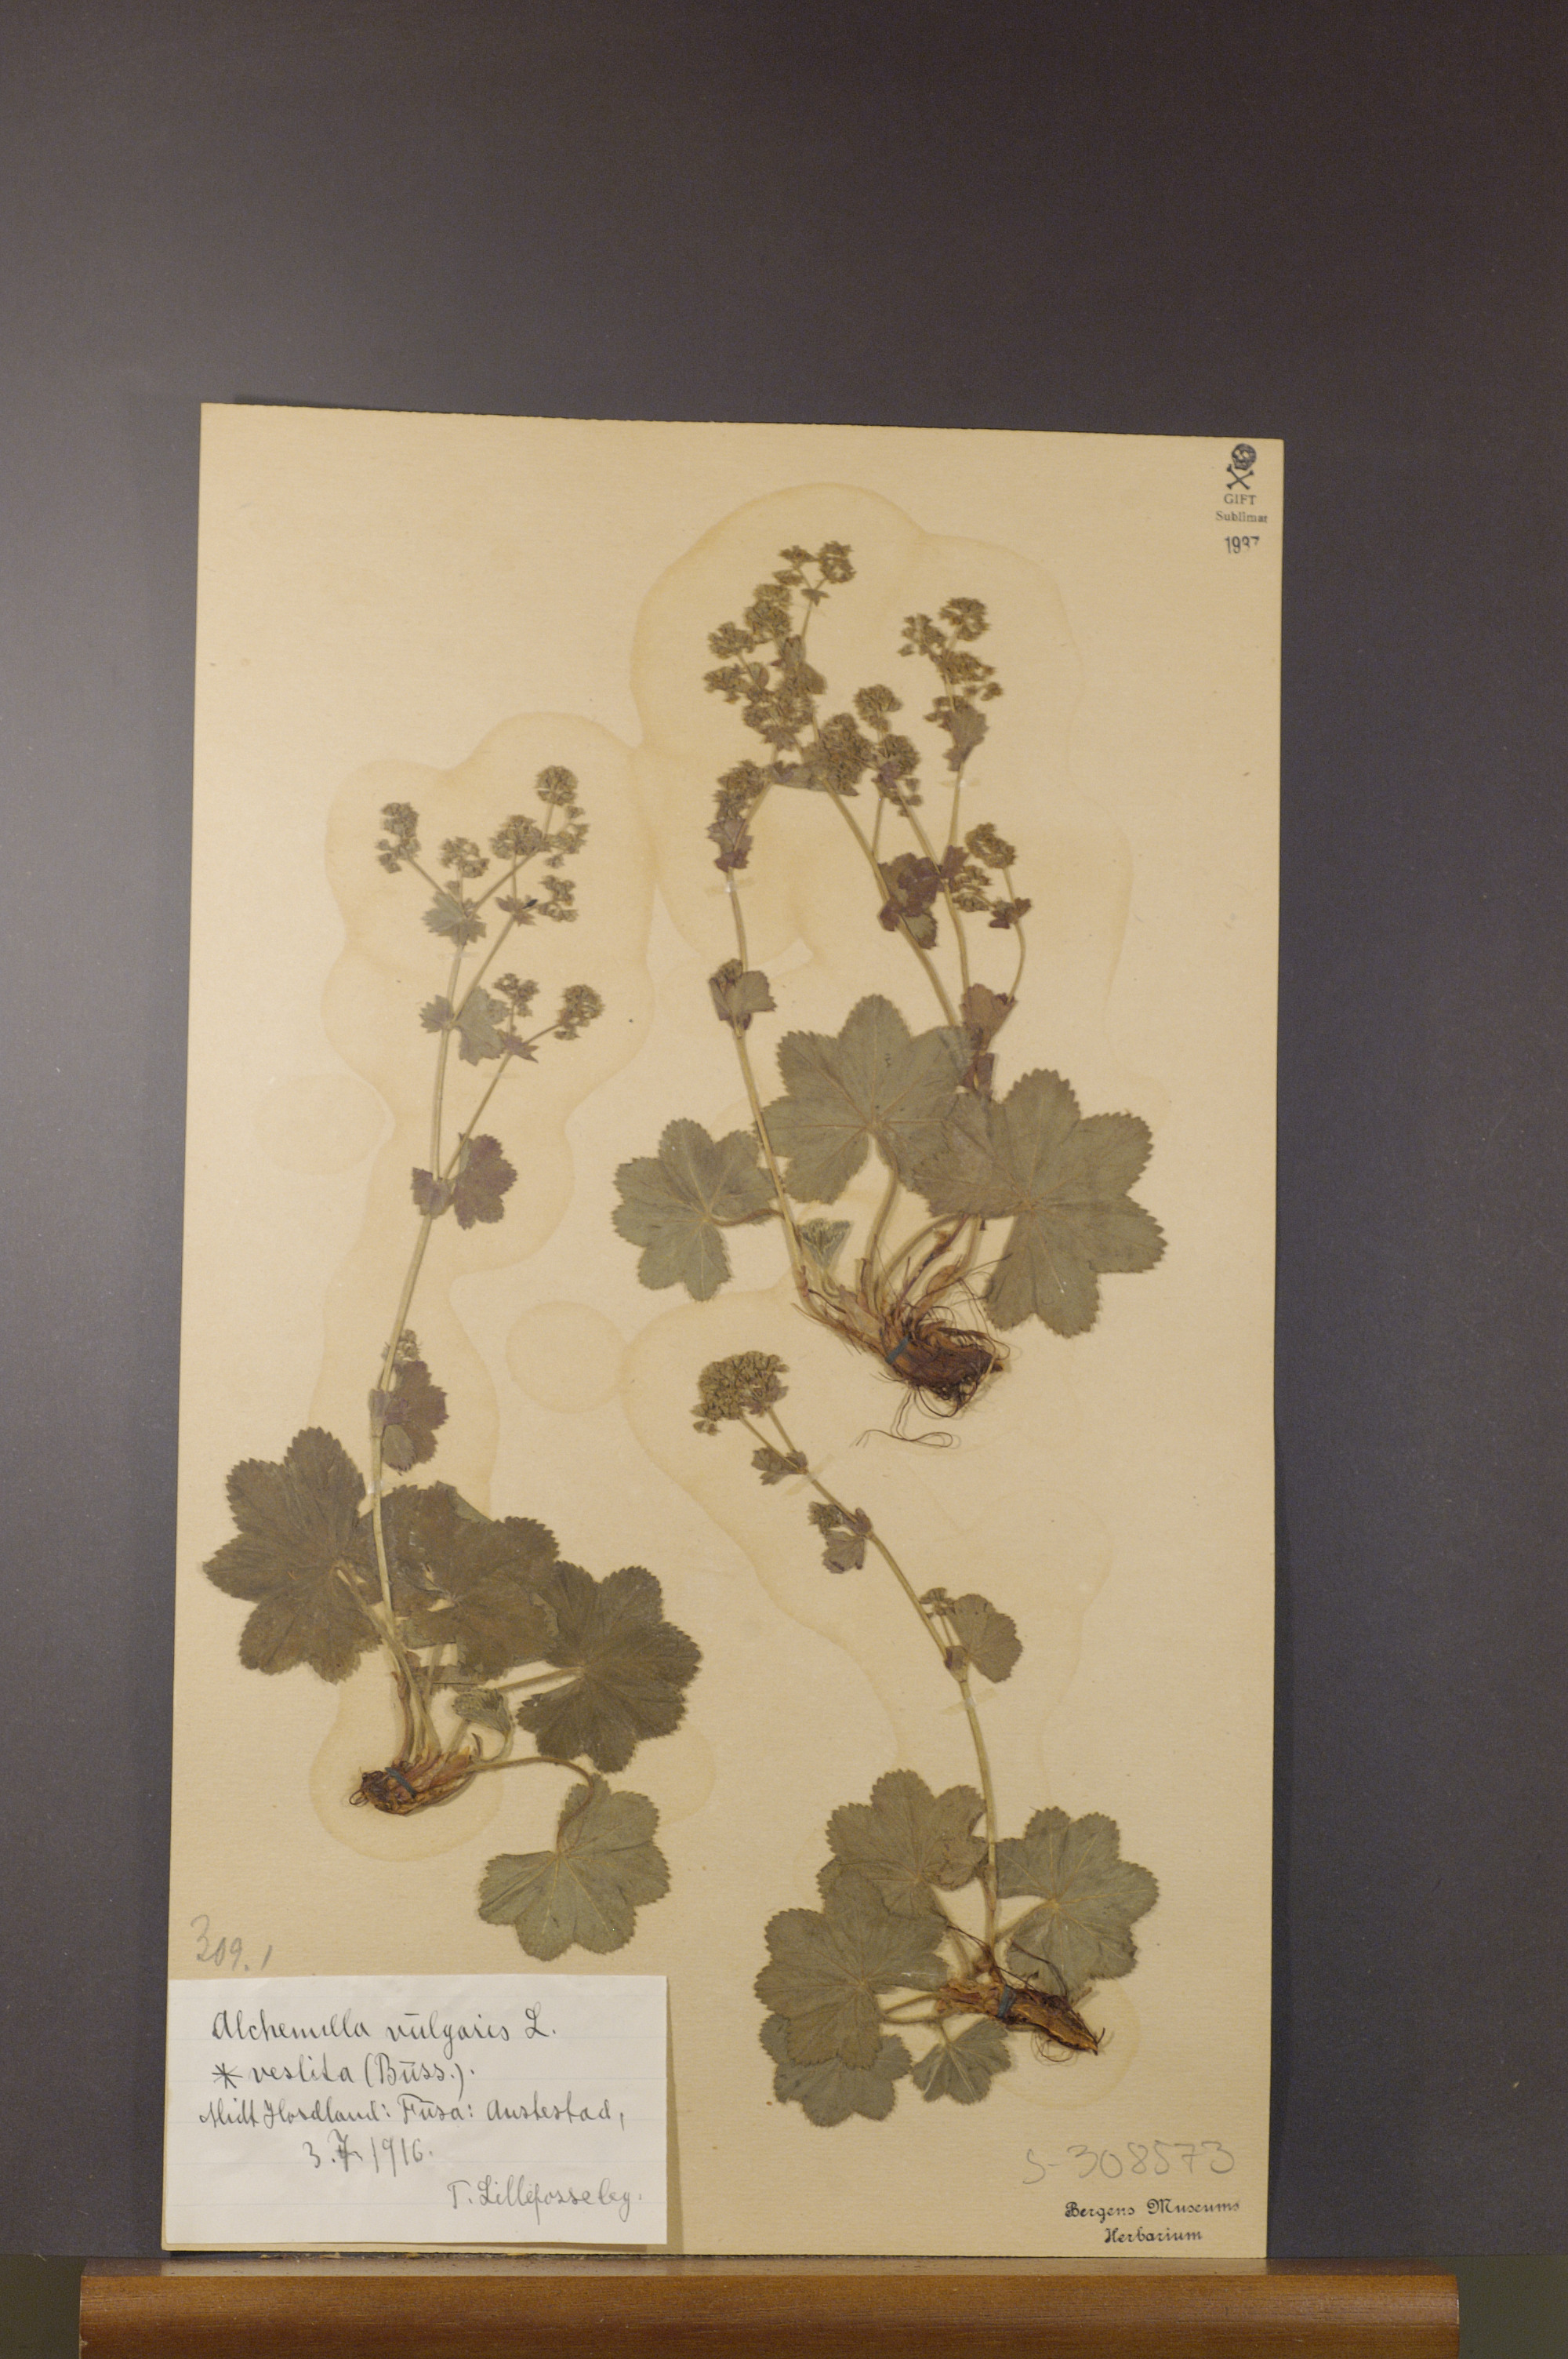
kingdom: Plantae
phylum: Tracheophyta
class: Magnoliopsida
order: Rosales
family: Rosaceae
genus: Alchemilla
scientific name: Alchemilla filicaulis
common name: Hairy lady's-mantle
